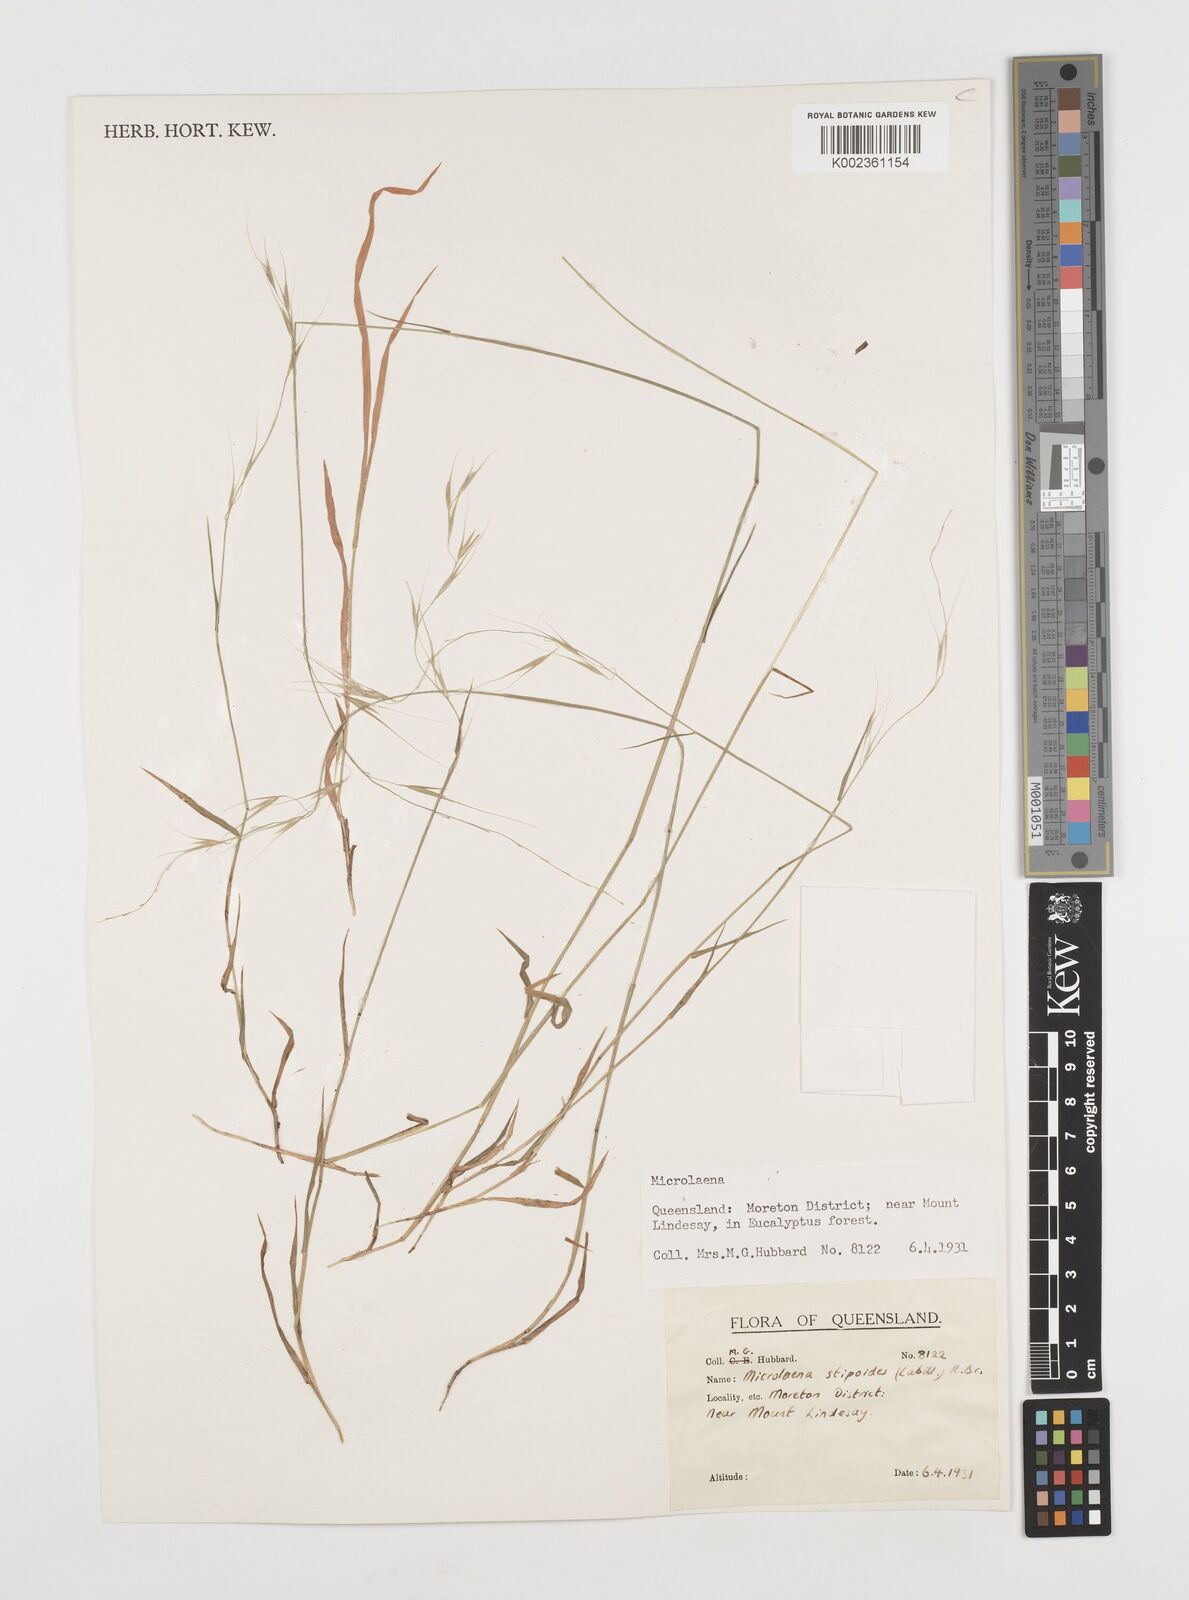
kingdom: Plantae
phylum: Tracheophyta
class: Liliopsida
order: Poales
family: Poaceae
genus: Microlaena
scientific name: Microlaena stipoides
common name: Meadow ricegrass
